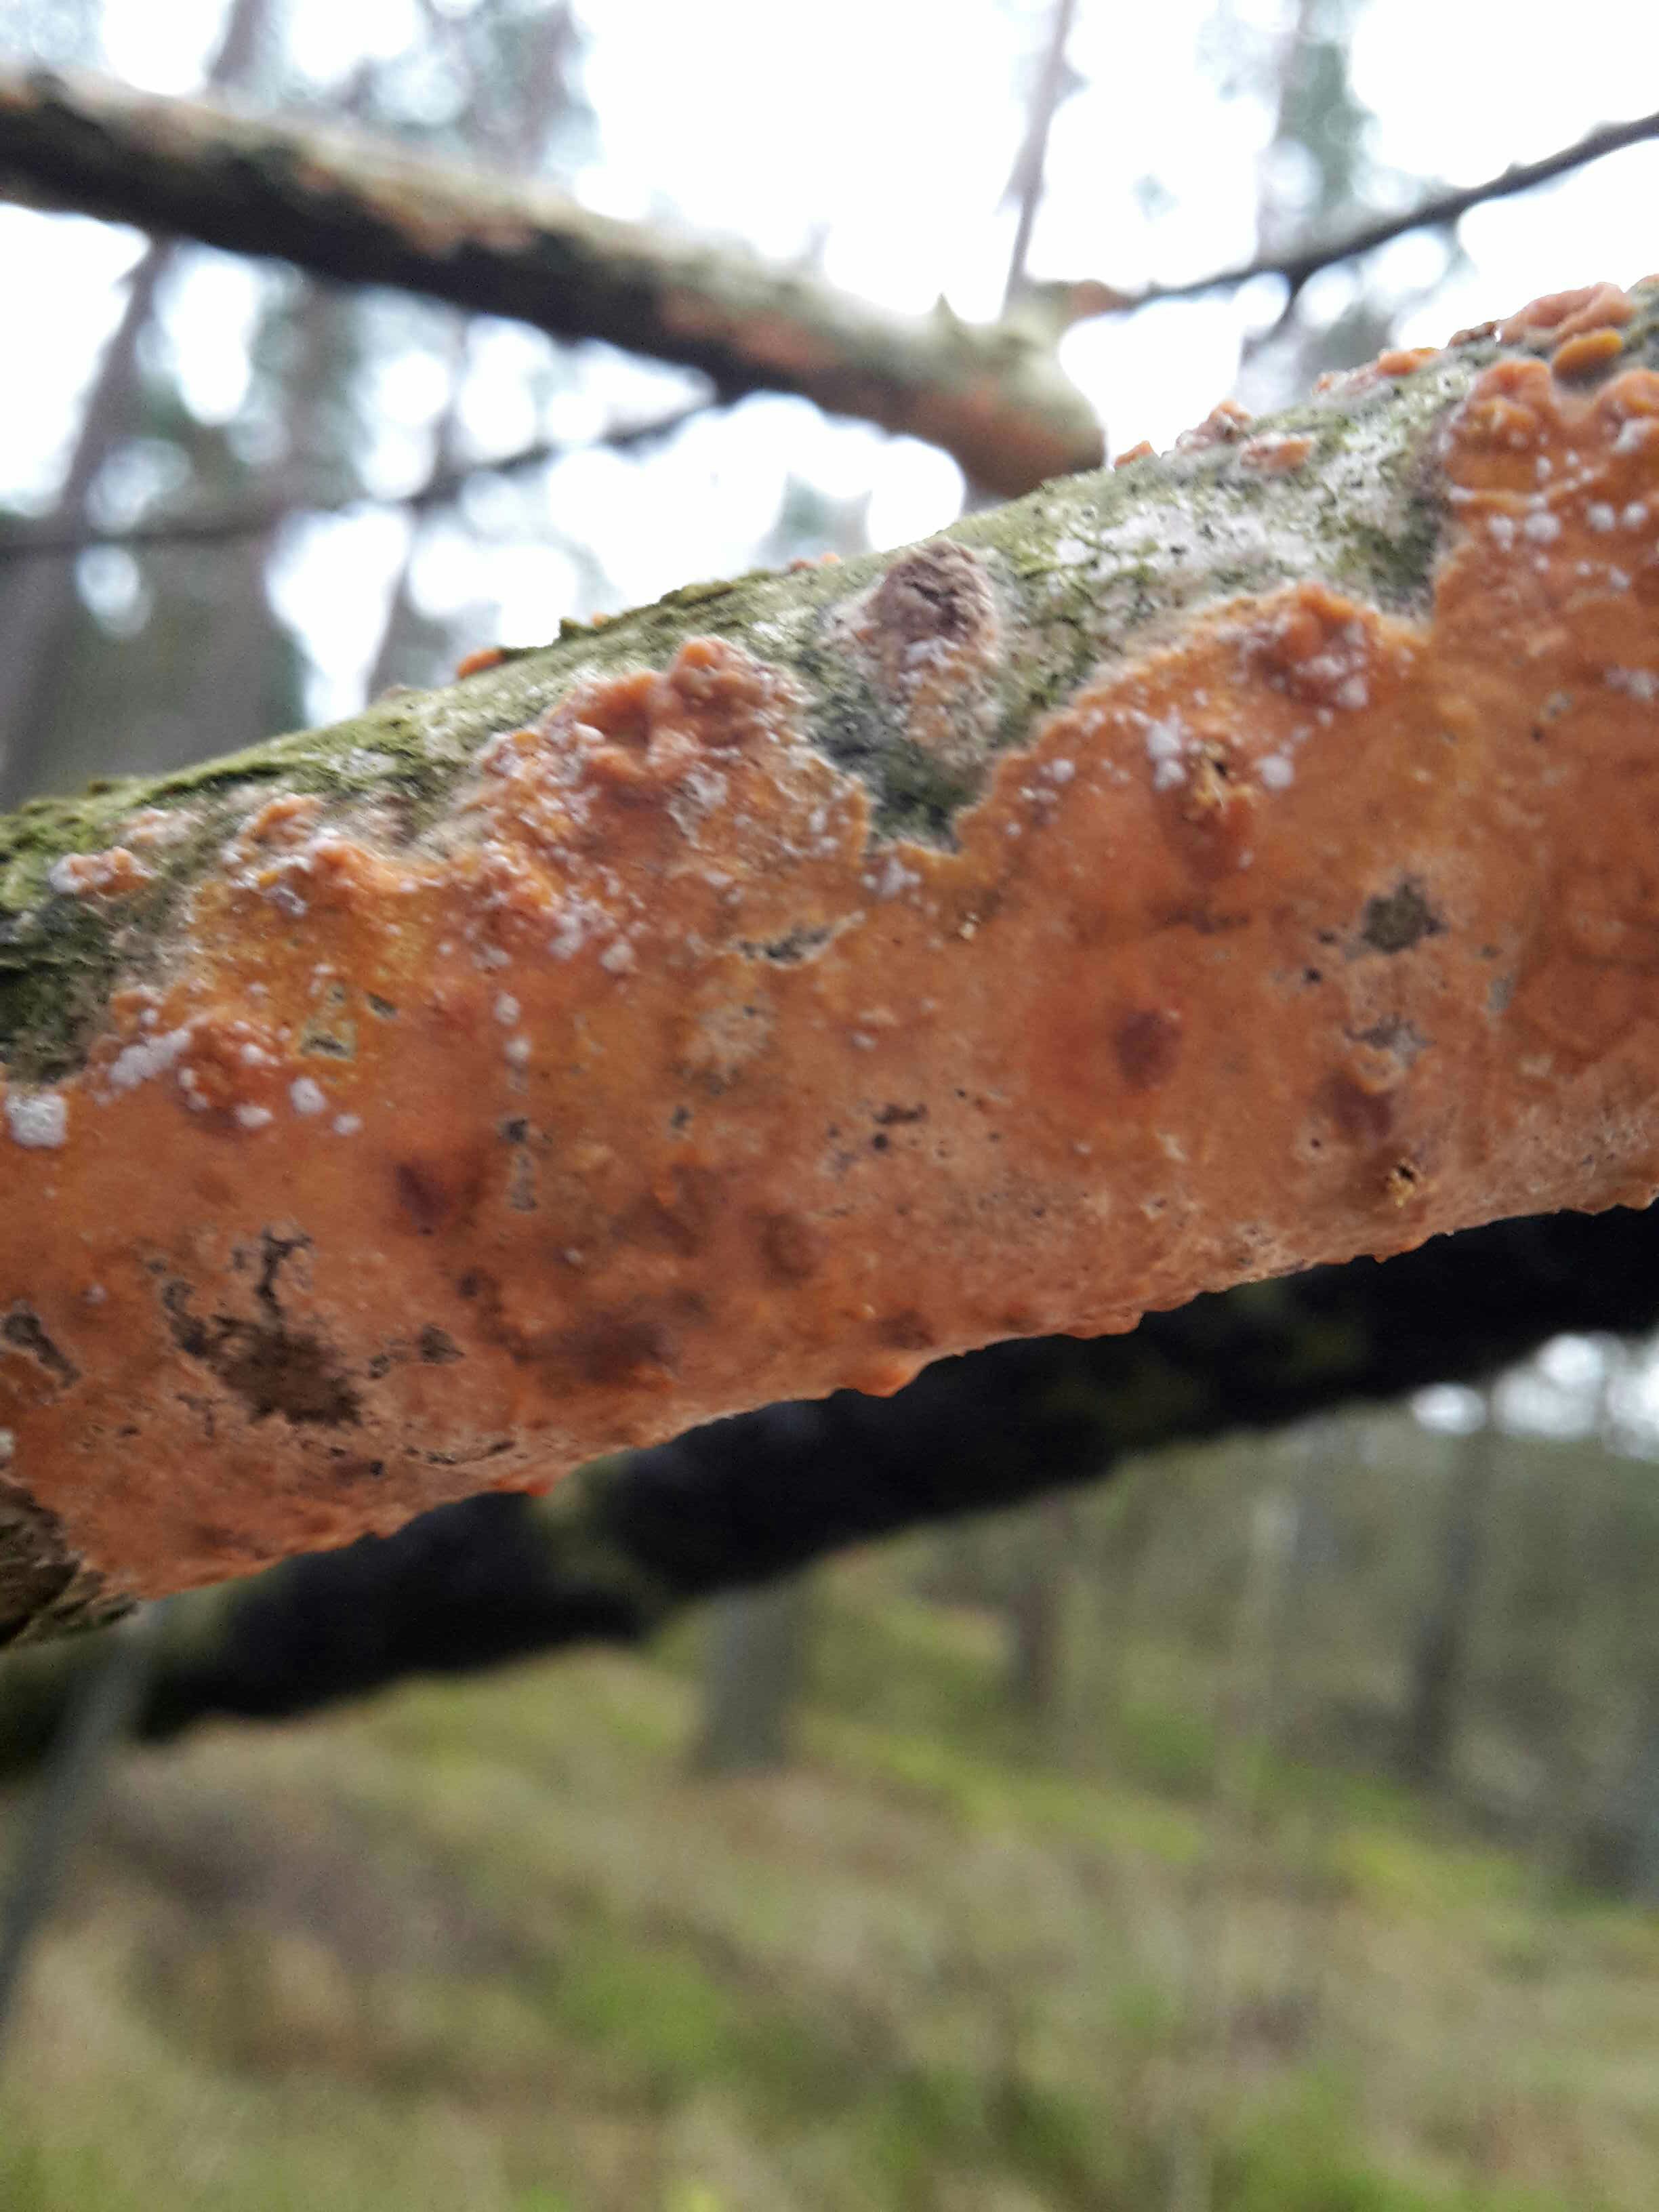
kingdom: Fungi
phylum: Basidiomycota
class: Agaricomycetes
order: Russulales
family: Peniophoraceae
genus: Peniophora
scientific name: Peniophora incarnata
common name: laksefarvet voksskind
